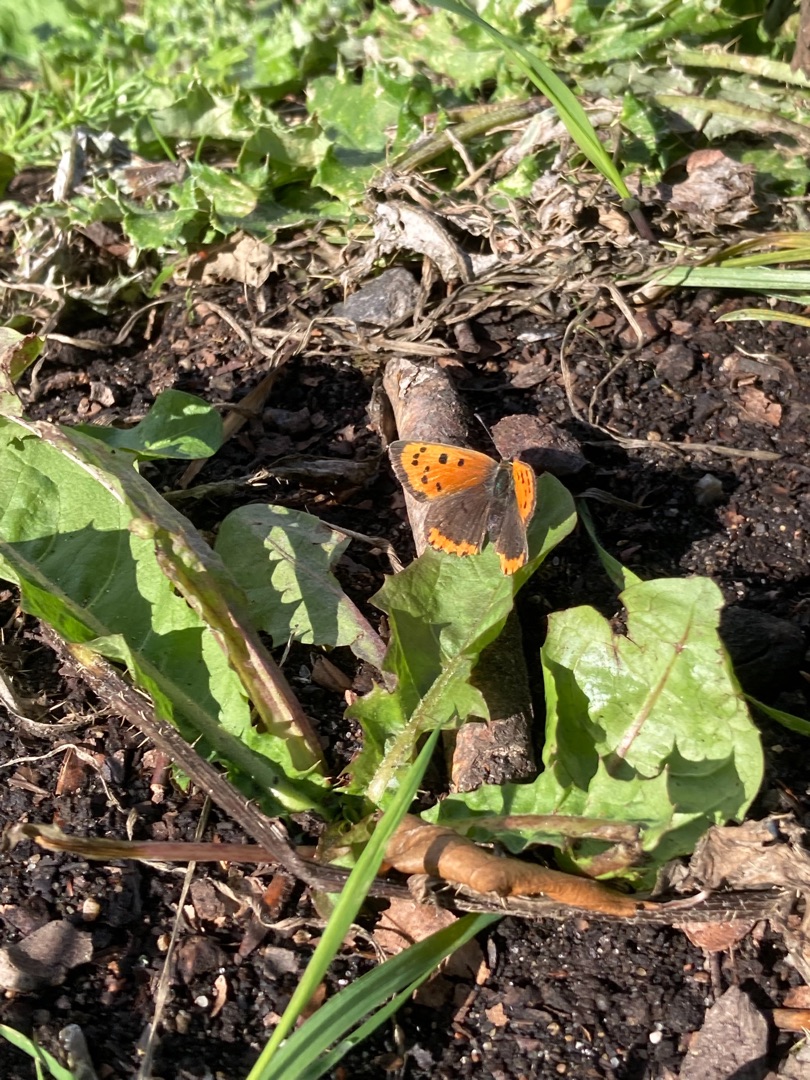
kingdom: Animalia
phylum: Arthropoda
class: Insecta
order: Lepidoptera
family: Lycaenidae
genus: Lycaena
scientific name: Lycaena phlaeas
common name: Lille ildfugl
